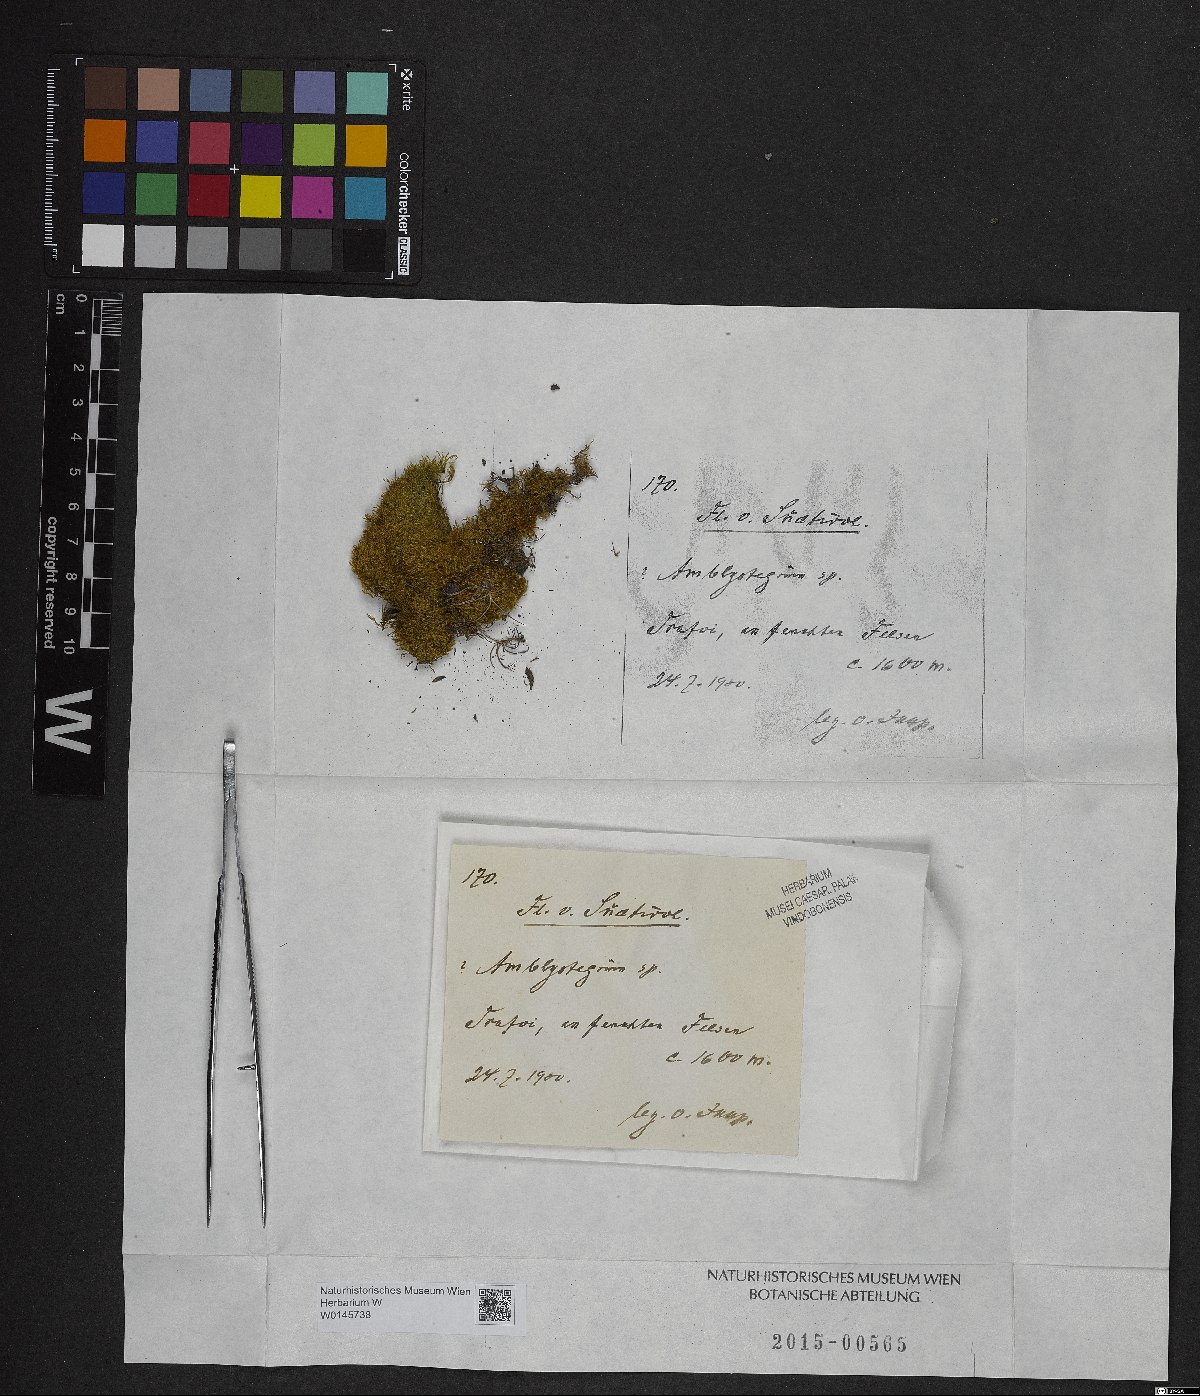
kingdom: Plantae
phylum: Bryophyta
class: Bryopsida
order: Hypnales
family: Amblystegiaceae
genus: Amblystegium
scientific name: Amblystegium
